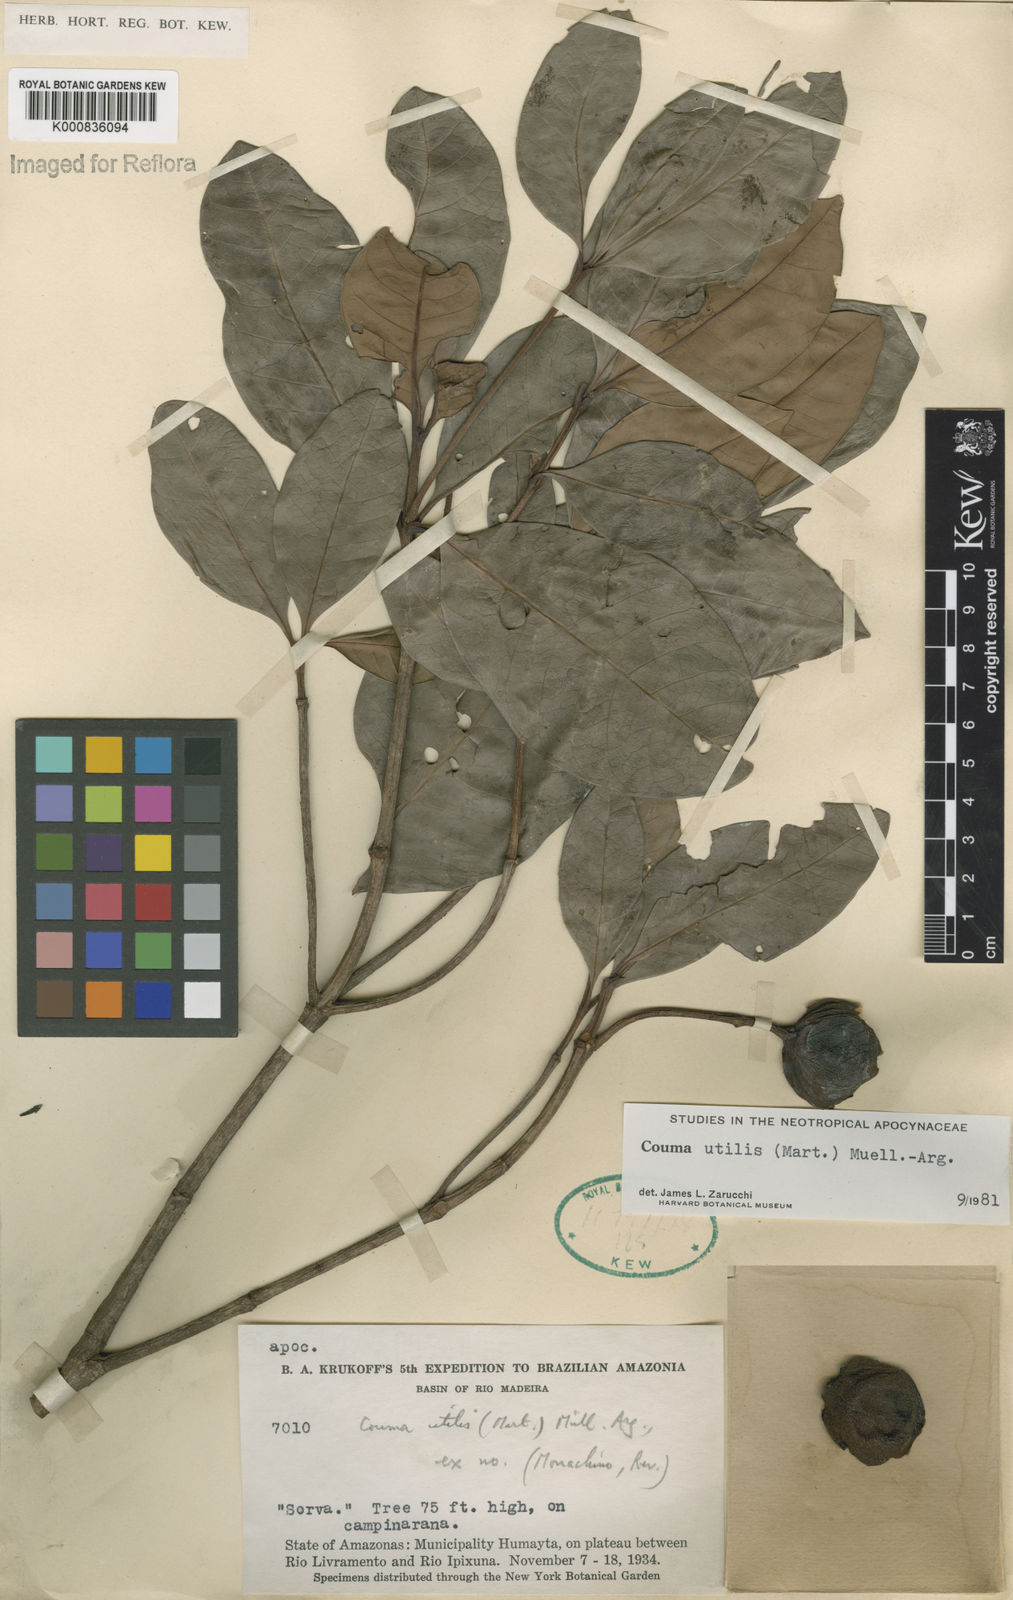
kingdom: Plantae
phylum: Tracheophyta
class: Magnoliopsida
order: Gentianales
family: Apocynaceae
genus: Couma
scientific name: Couma
